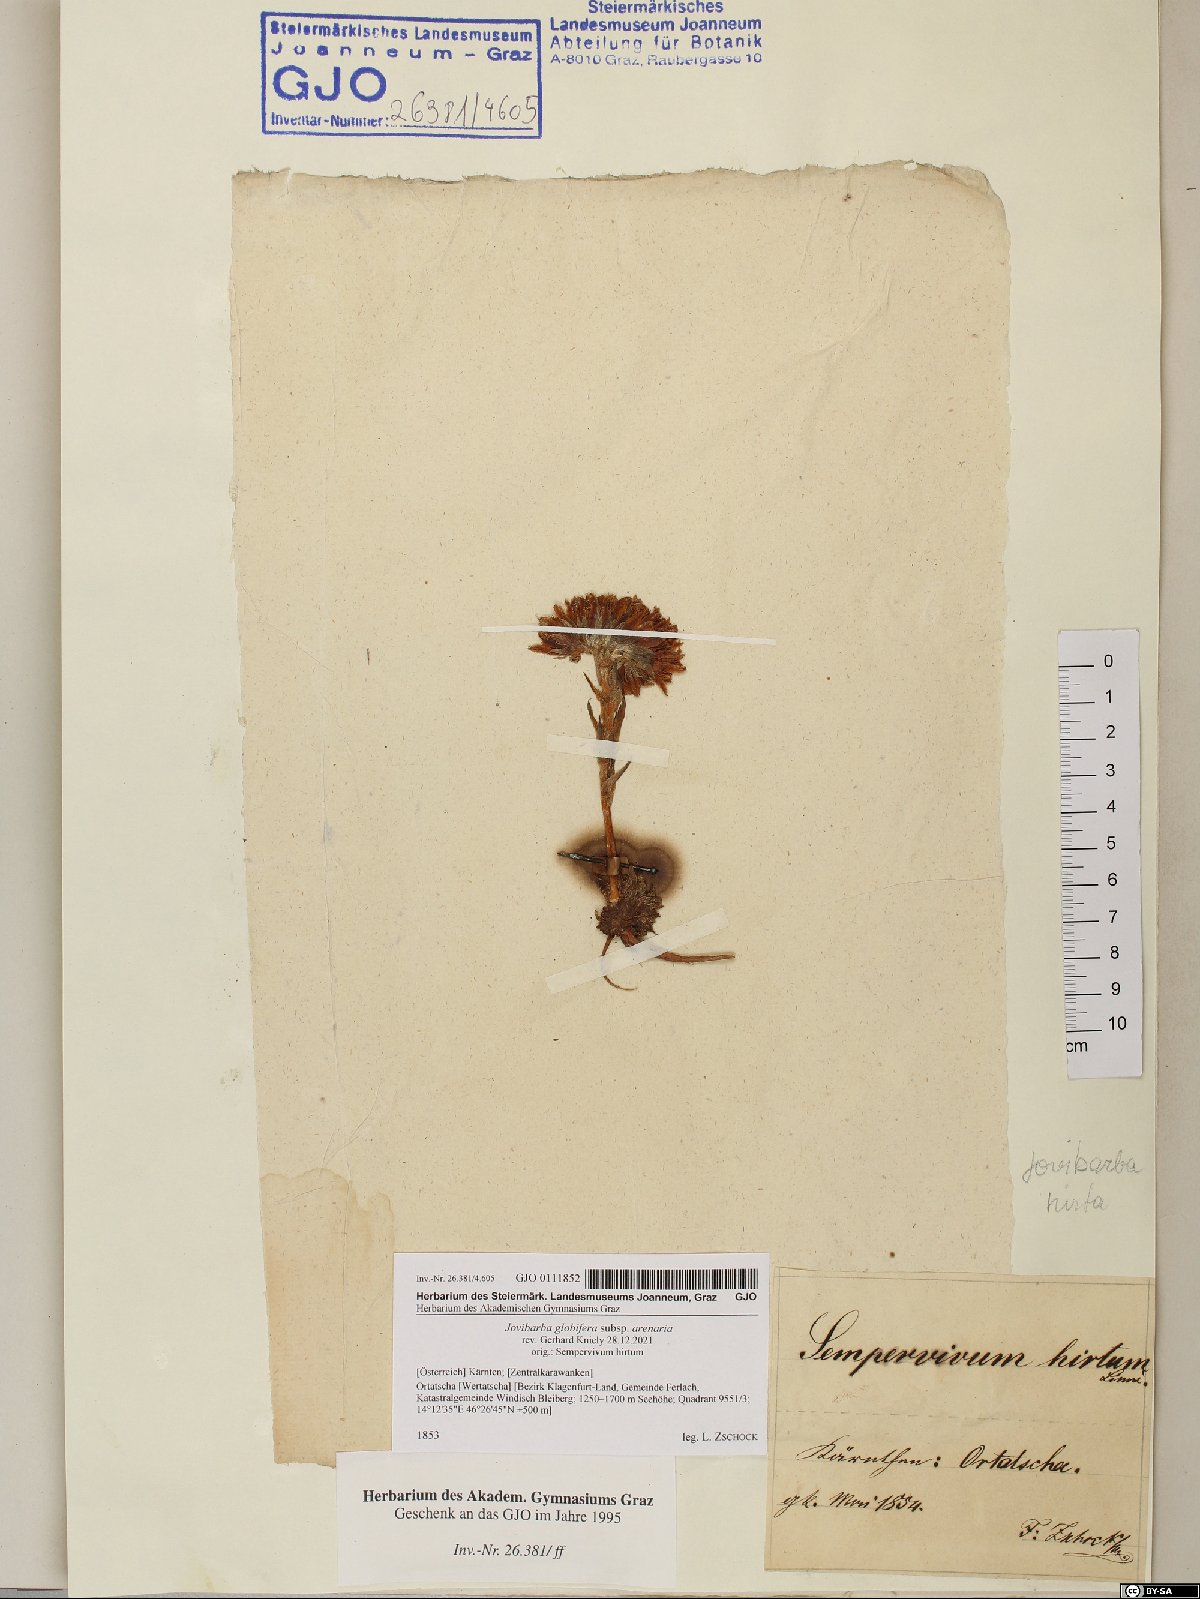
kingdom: Plantae
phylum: Tracheophyta
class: Magnoliopsida
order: Saxifragales
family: Crassulaceae
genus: Sempervivum
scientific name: Sempervivum globiferum
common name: Rolling hen-and-chicks
